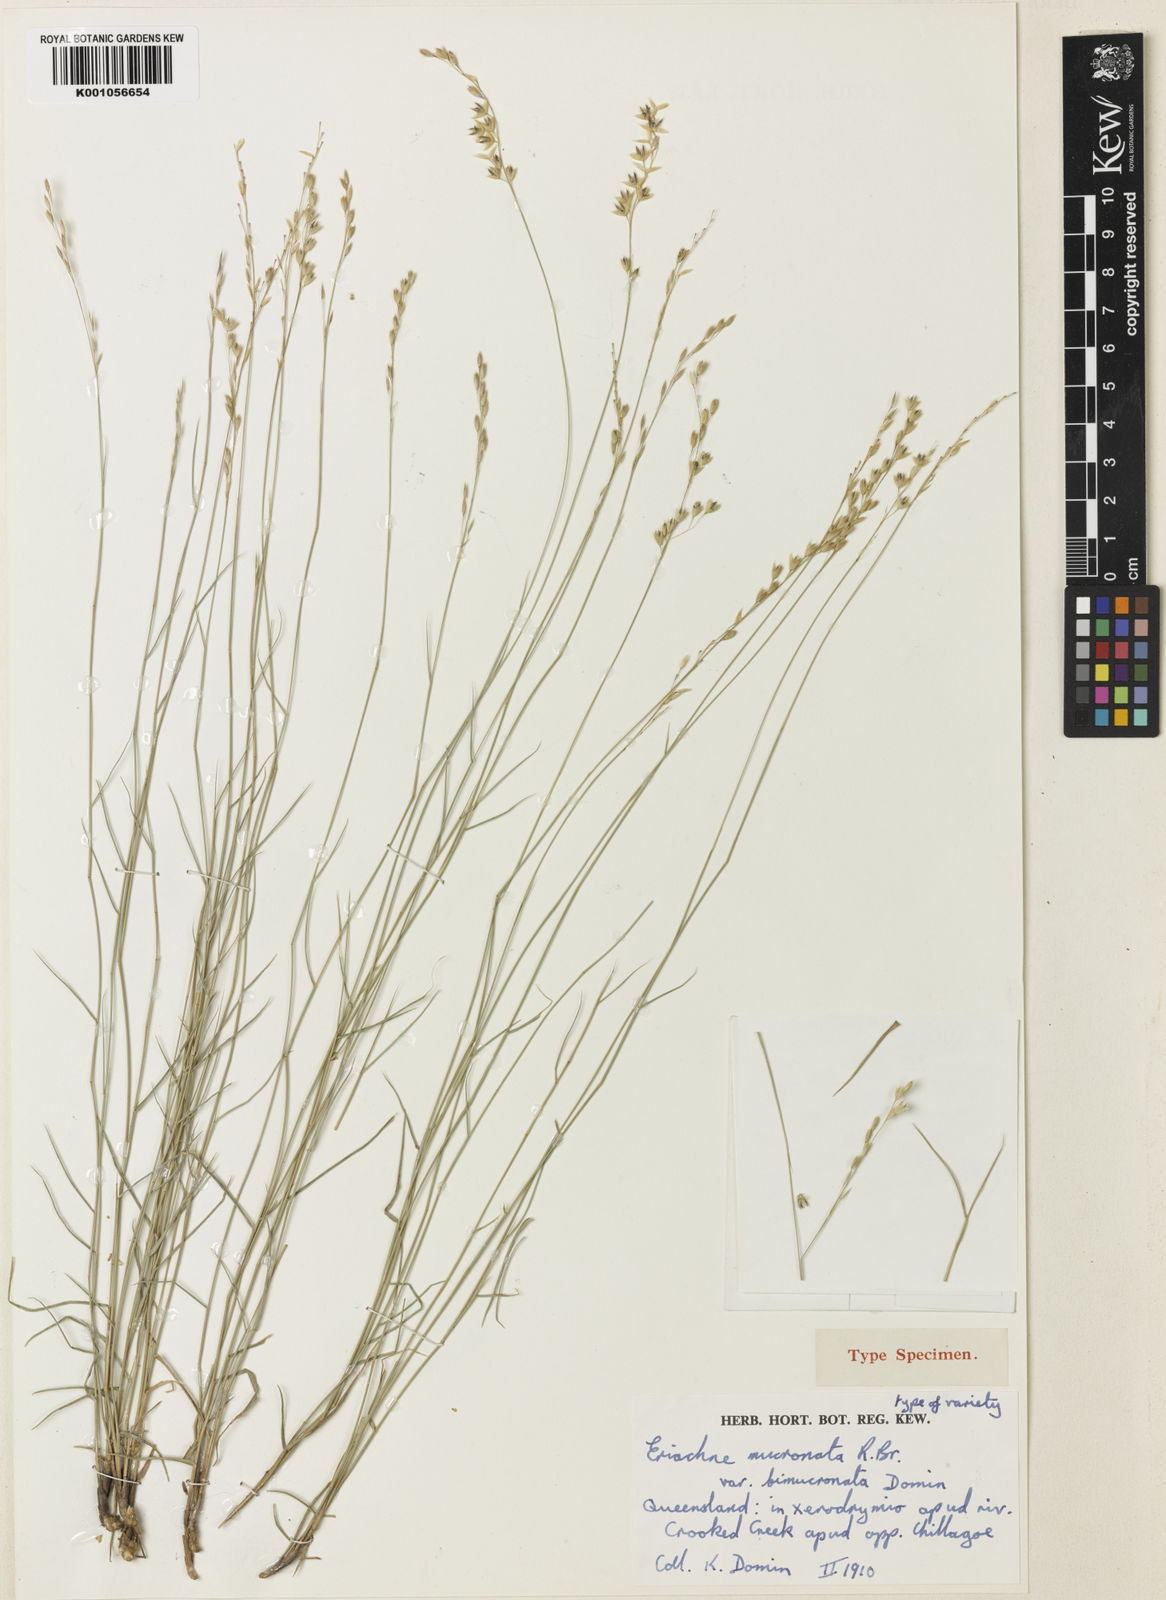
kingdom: Plantae
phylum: Tracheophyta
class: Liliopsida
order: Poales
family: Poaceae
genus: Eriachne
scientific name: Eriachne mucronata
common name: Mountain wanderrie grass
